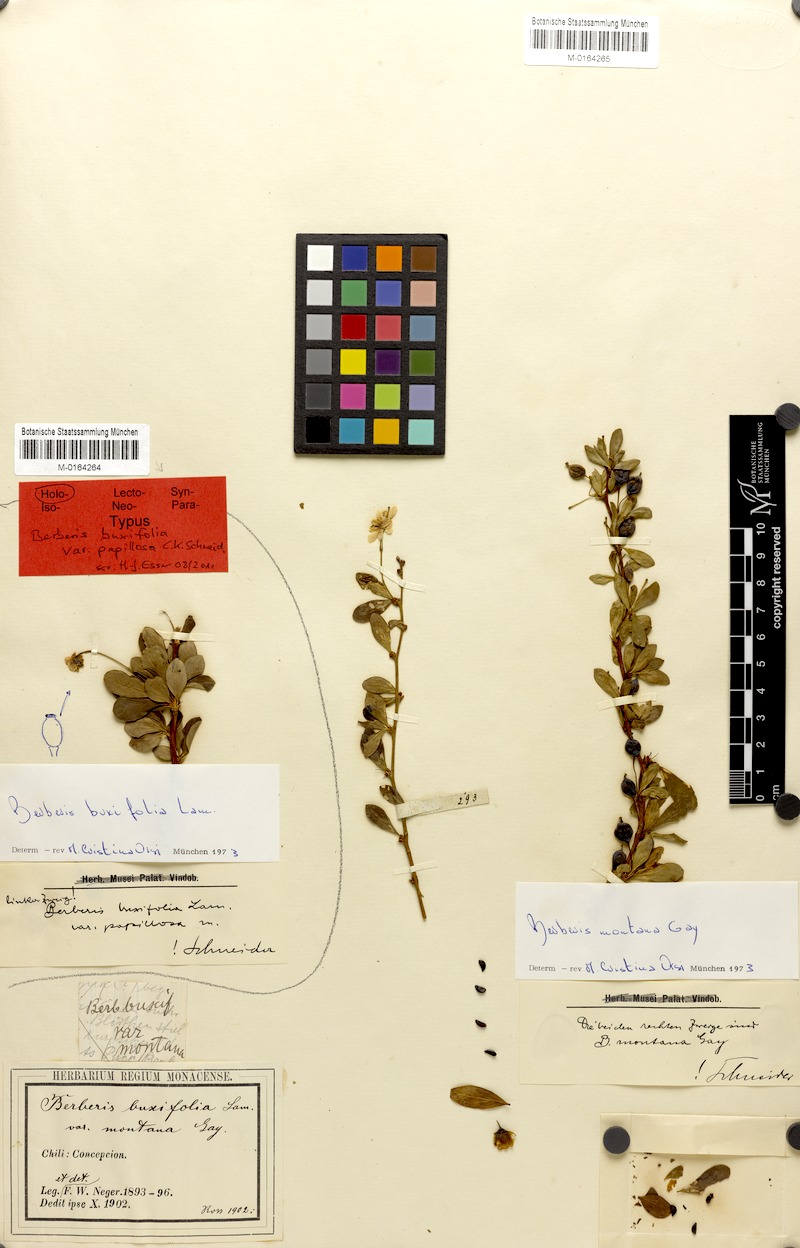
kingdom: Plantae
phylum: Tracheophyta
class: Magnoliopsida
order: Ranunculales
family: Berberidaceae
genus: Berberis
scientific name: Berberis montana
